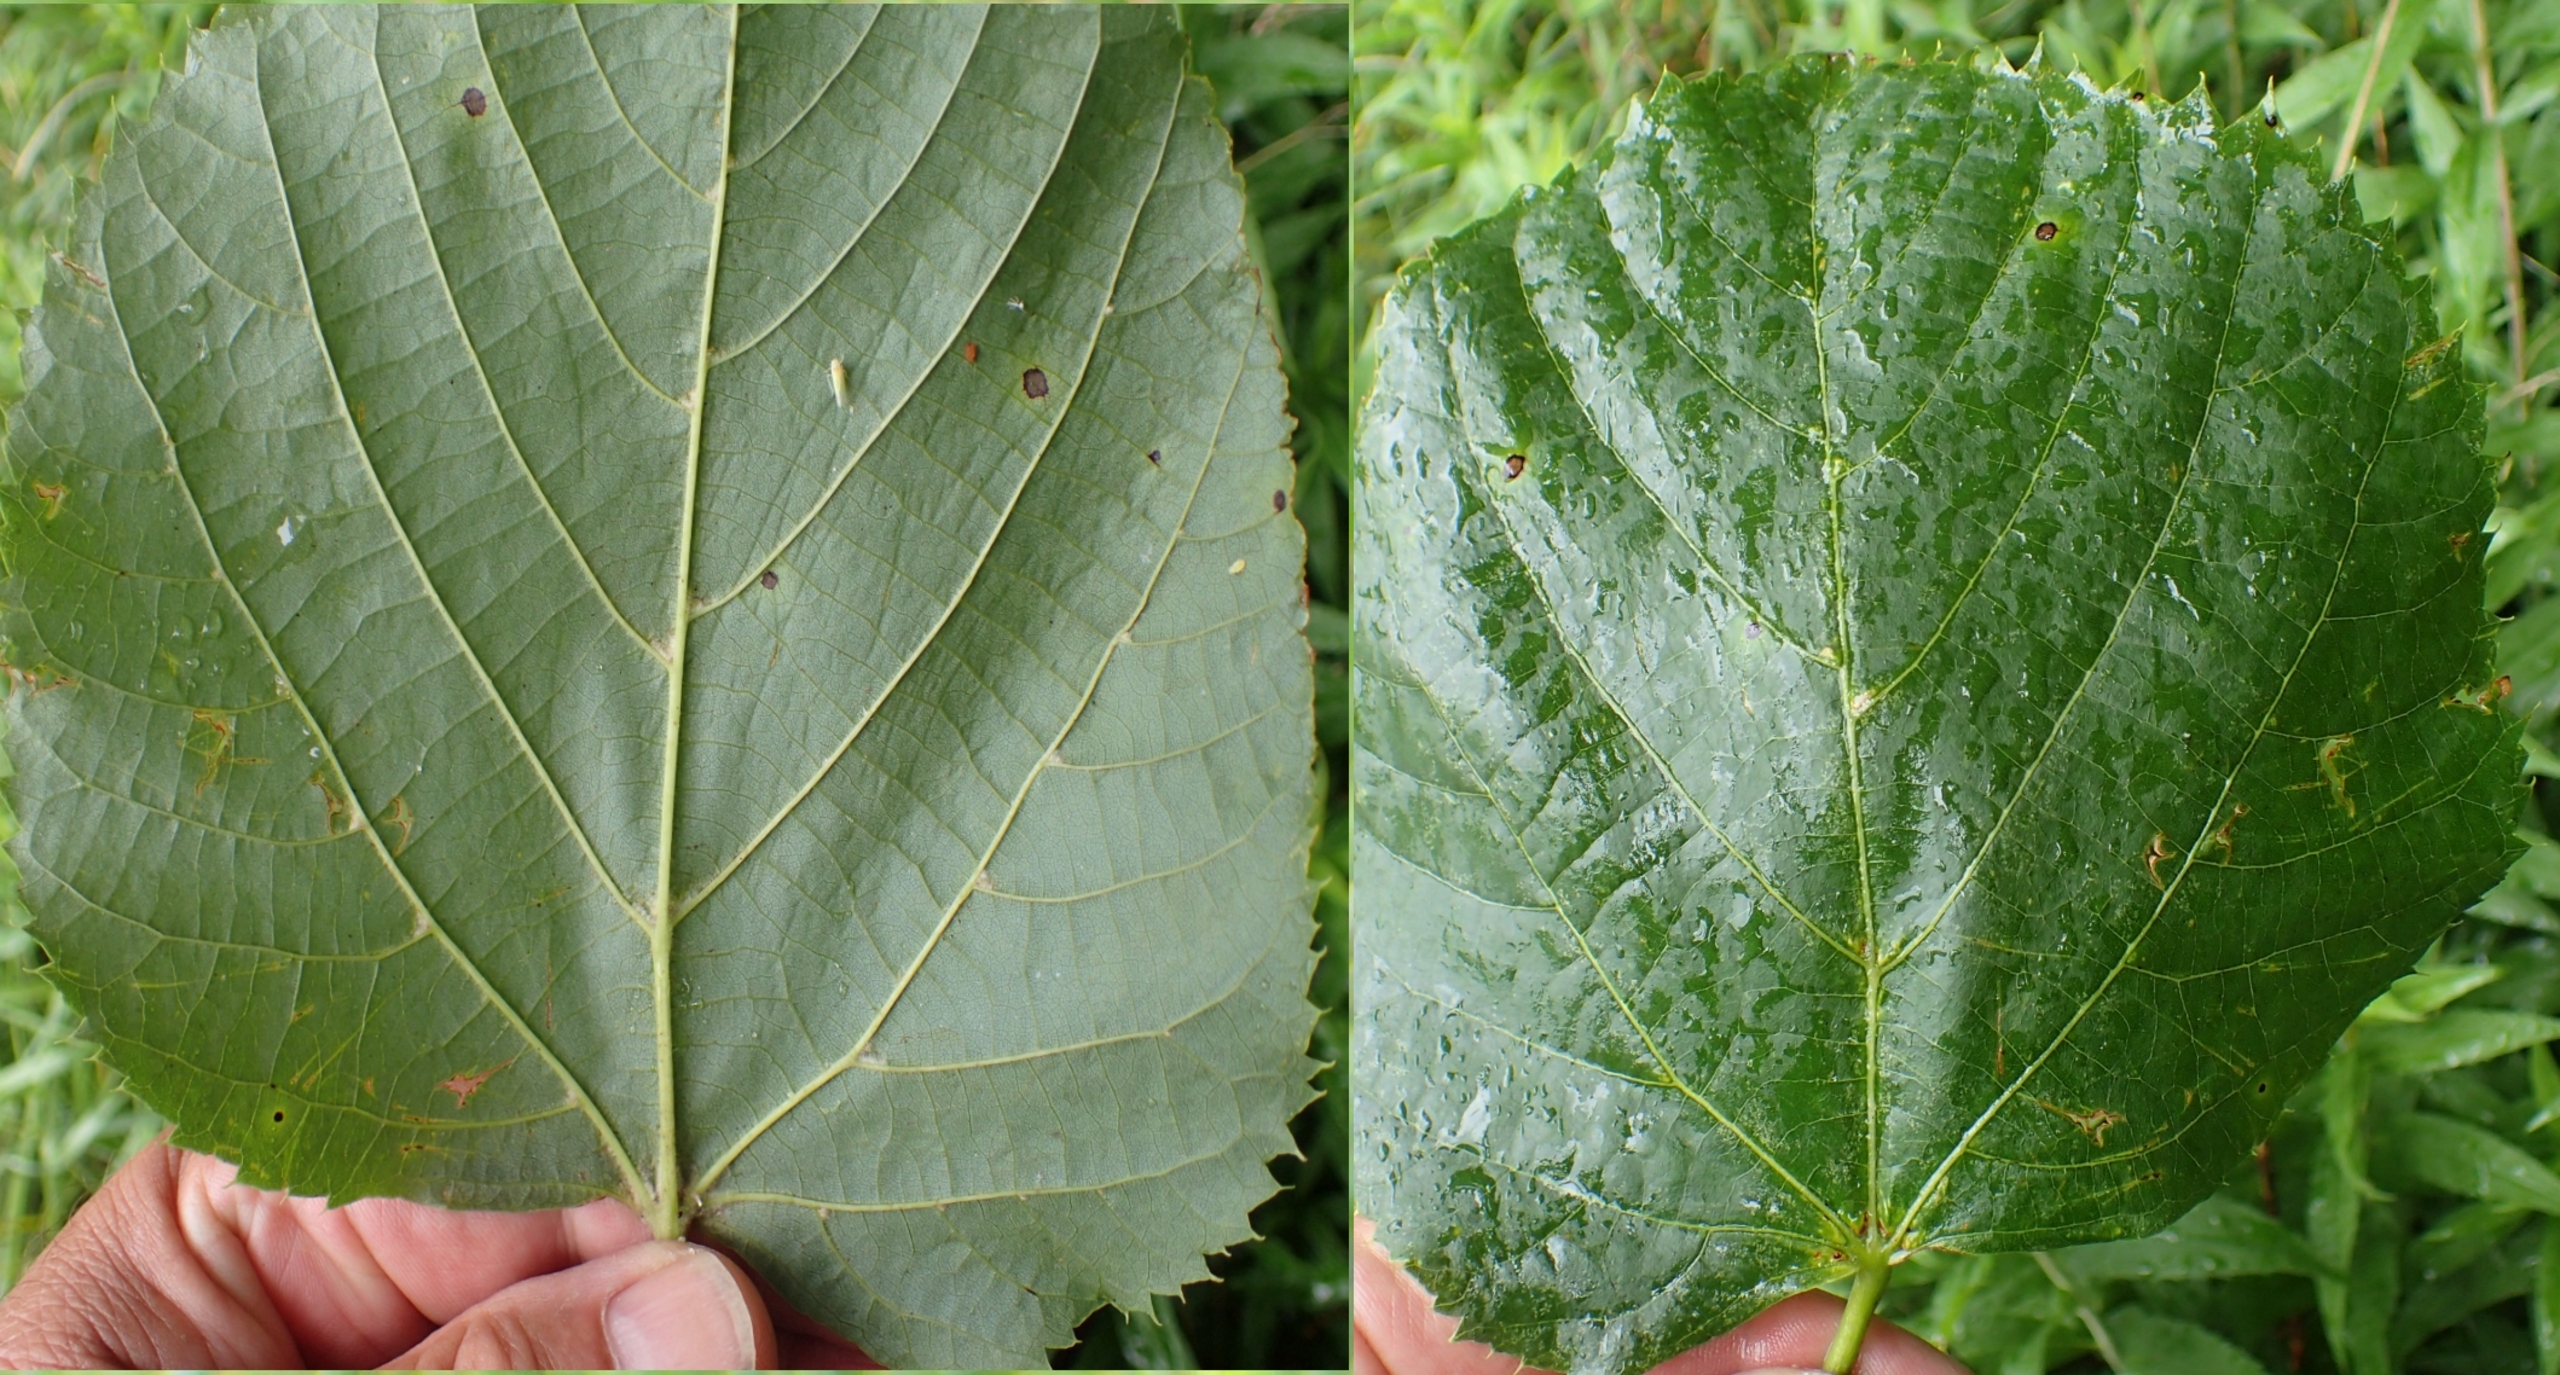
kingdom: Plantae
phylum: Tracheophyta
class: Magnoliopsida
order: Malvales
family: Malvaceae
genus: Tilia
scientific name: Tilia europaea
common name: Park-lind
